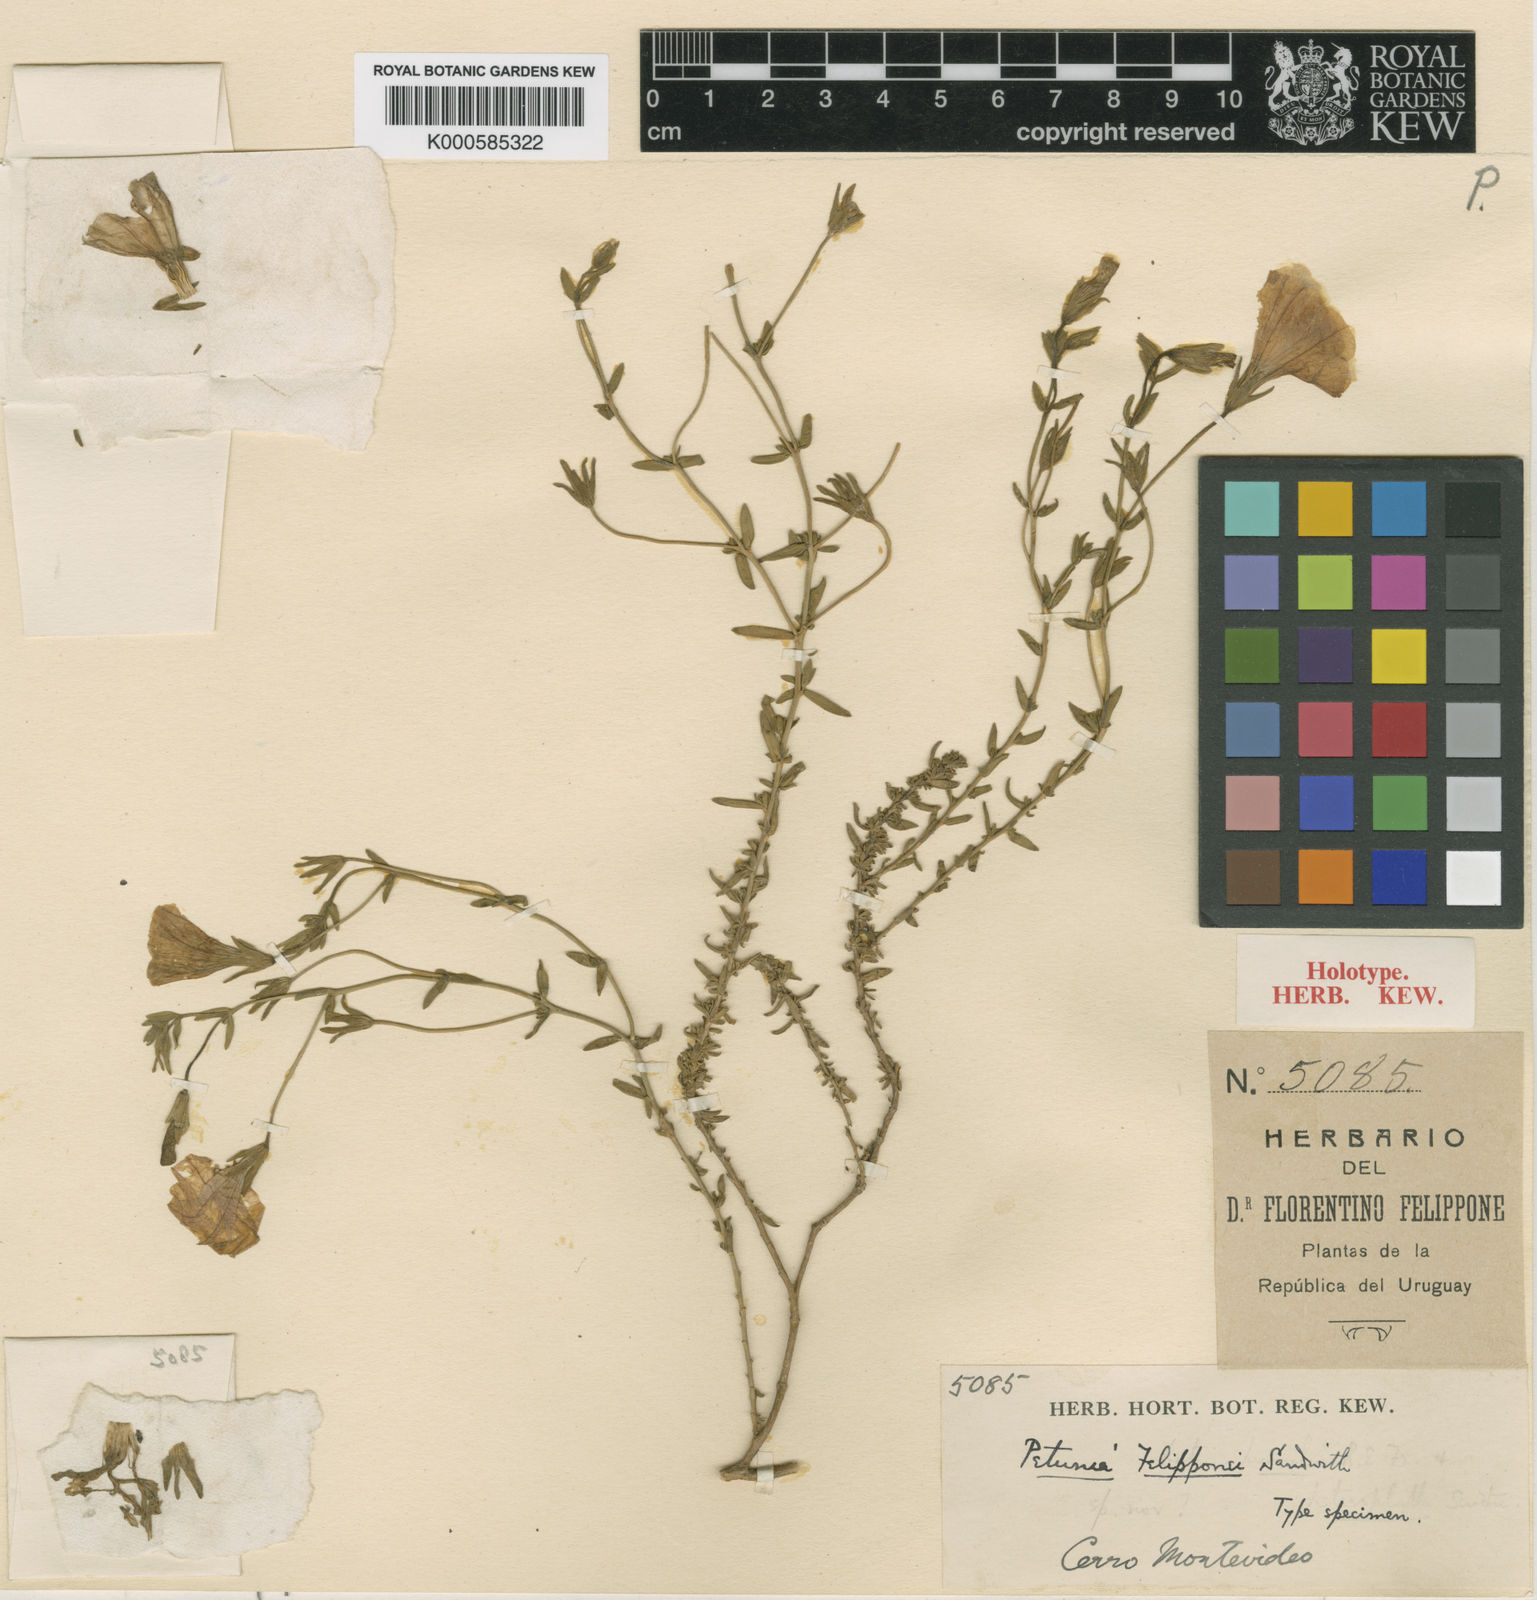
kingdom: Plantae
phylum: Tracheophyta
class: Magnoliopsida
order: Solanales
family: Solanaceae
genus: Calibrachoa
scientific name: Calibrachoa felipponei
